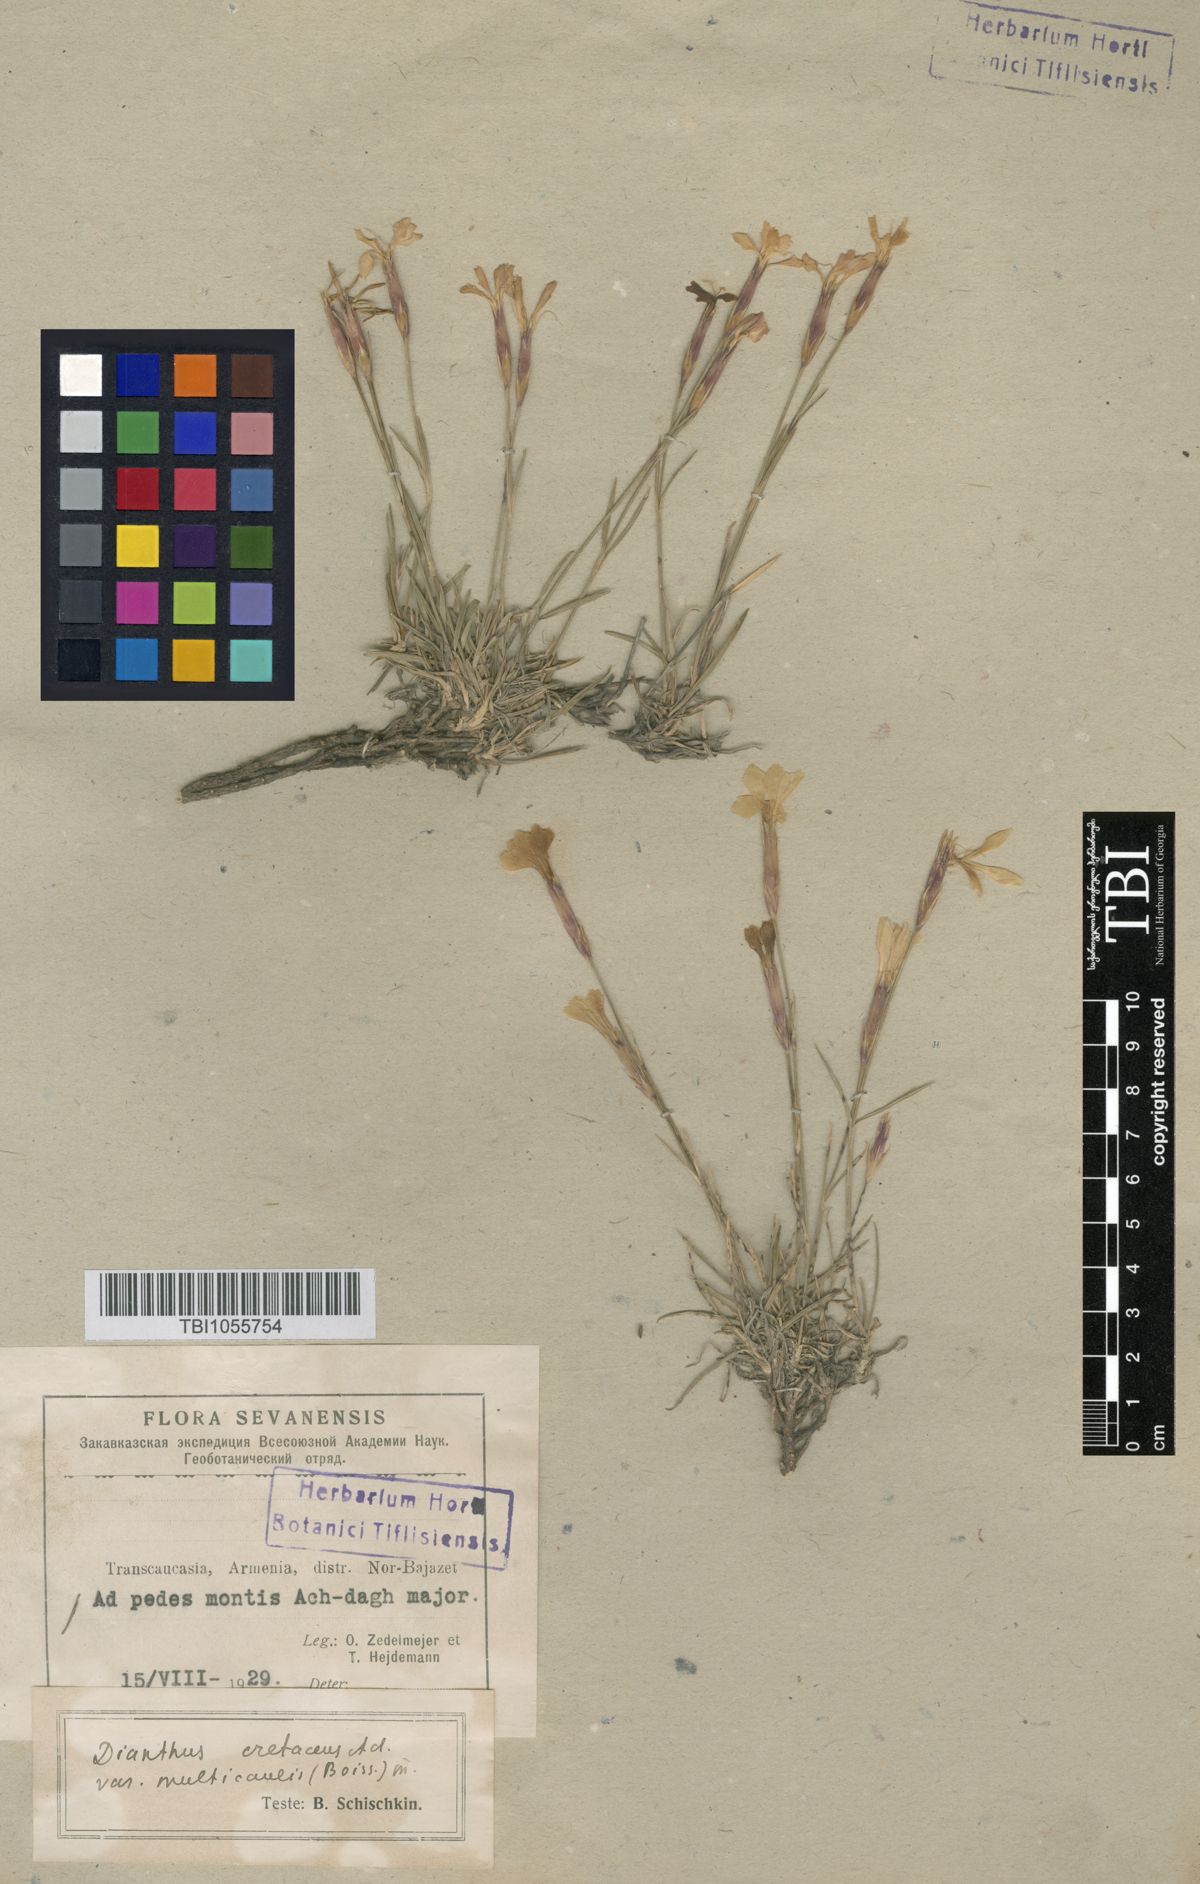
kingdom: Plantae
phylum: Tracheophyta
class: Magnoliopsida
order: Caryophyllales
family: Caryophyllaceae
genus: Dianthus
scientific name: Dianthus cretaceus
